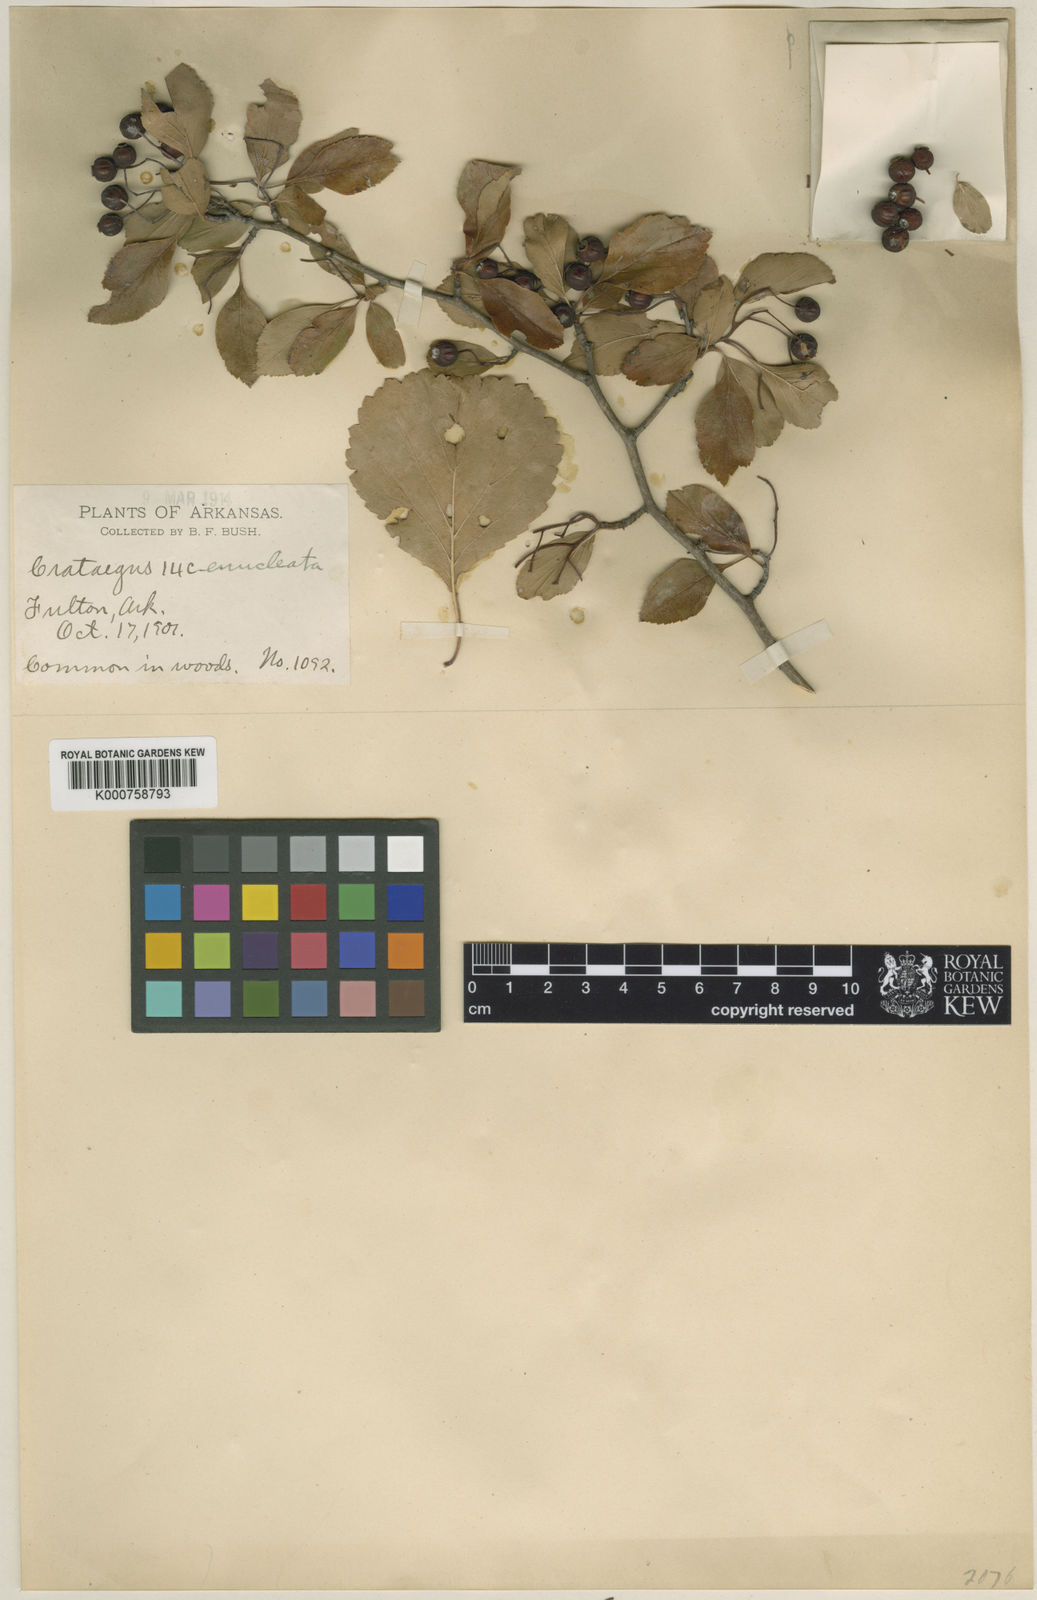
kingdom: Plantae
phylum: Tracheophyta
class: Magnoliopsida
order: Rosales
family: Rosaceae
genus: Crataegus
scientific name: Crataegus viridis
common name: Southernthorn
